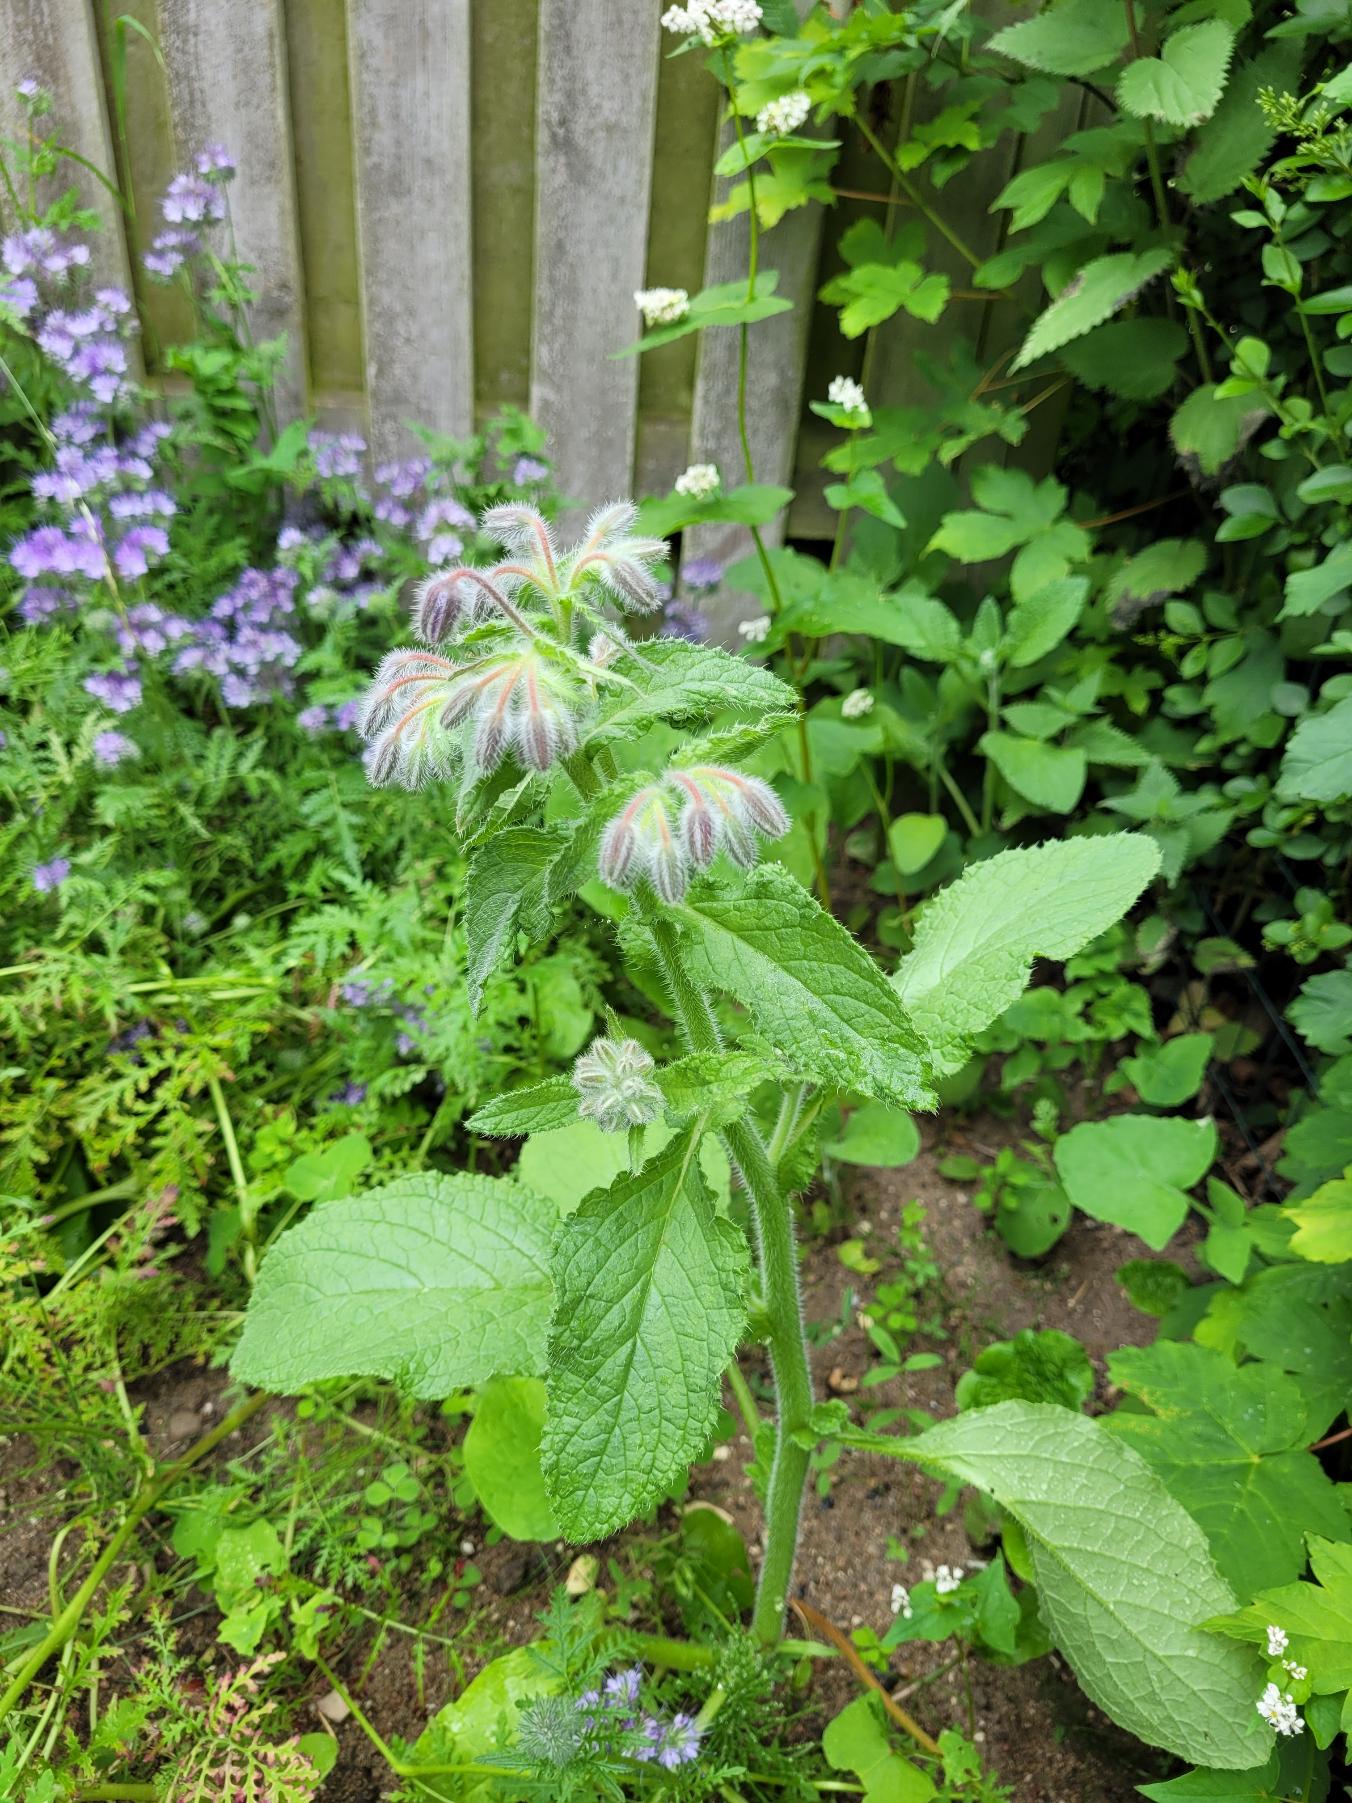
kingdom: Plantae
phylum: Tracheophyta
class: Magnoliopsida
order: Boraginales
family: Boraginaceae
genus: Borago
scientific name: Borago officinalis
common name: Hjulkrone
